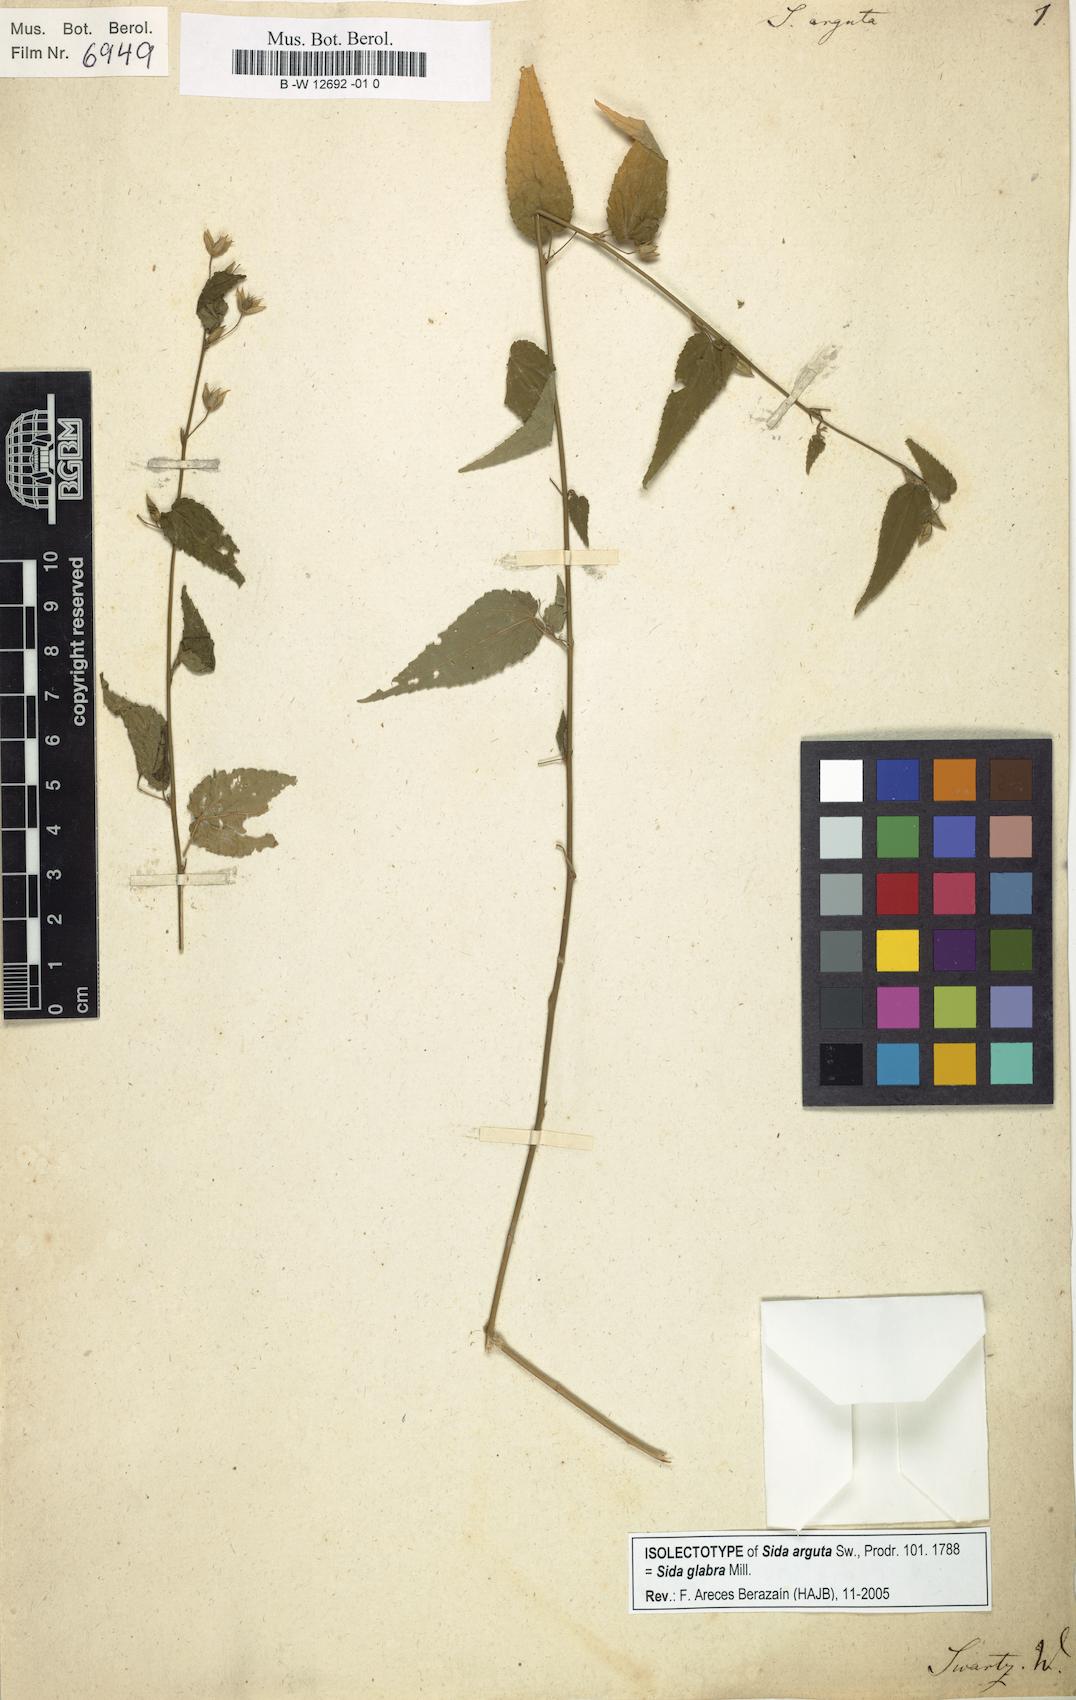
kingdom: Plantae
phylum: Tracheophyta
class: Magnoliopsida
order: Malvales
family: Malvaceae
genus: Sida
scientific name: Sida
